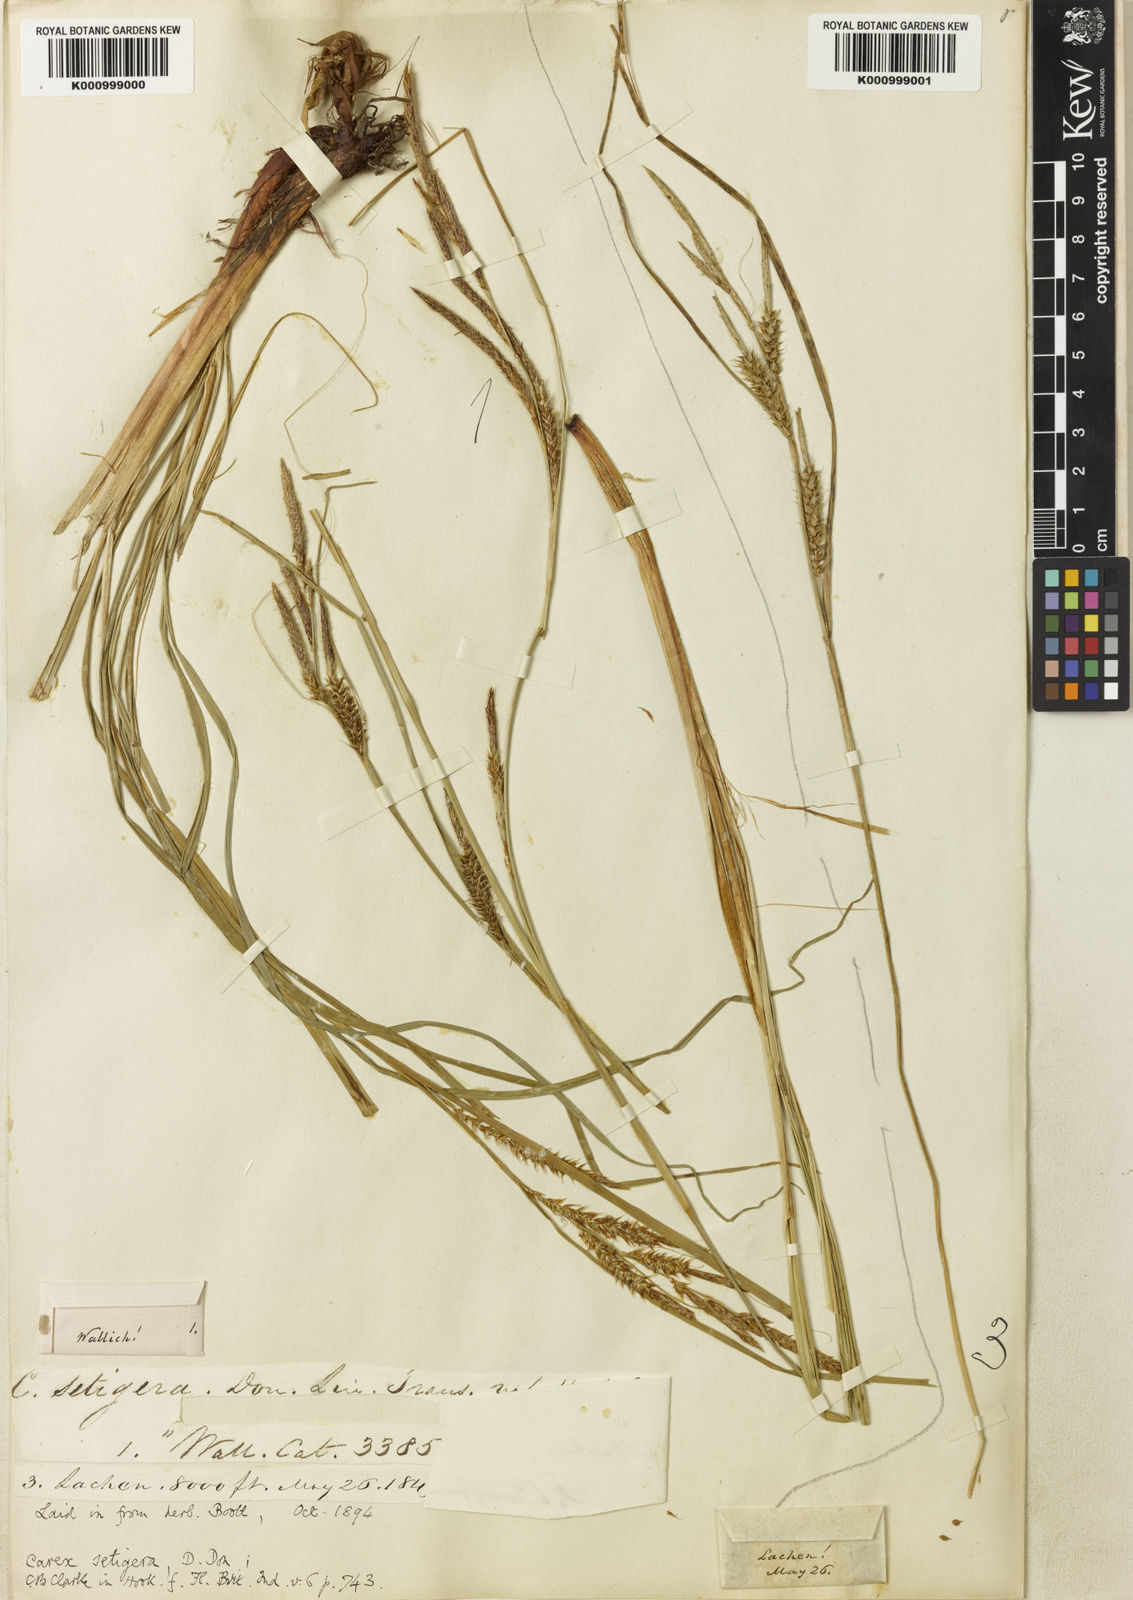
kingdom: Plantae
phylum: Tracheophyta
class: Liliopsida
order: Poales
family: Cyperaceae
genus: Carex
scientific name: Carex setigera
